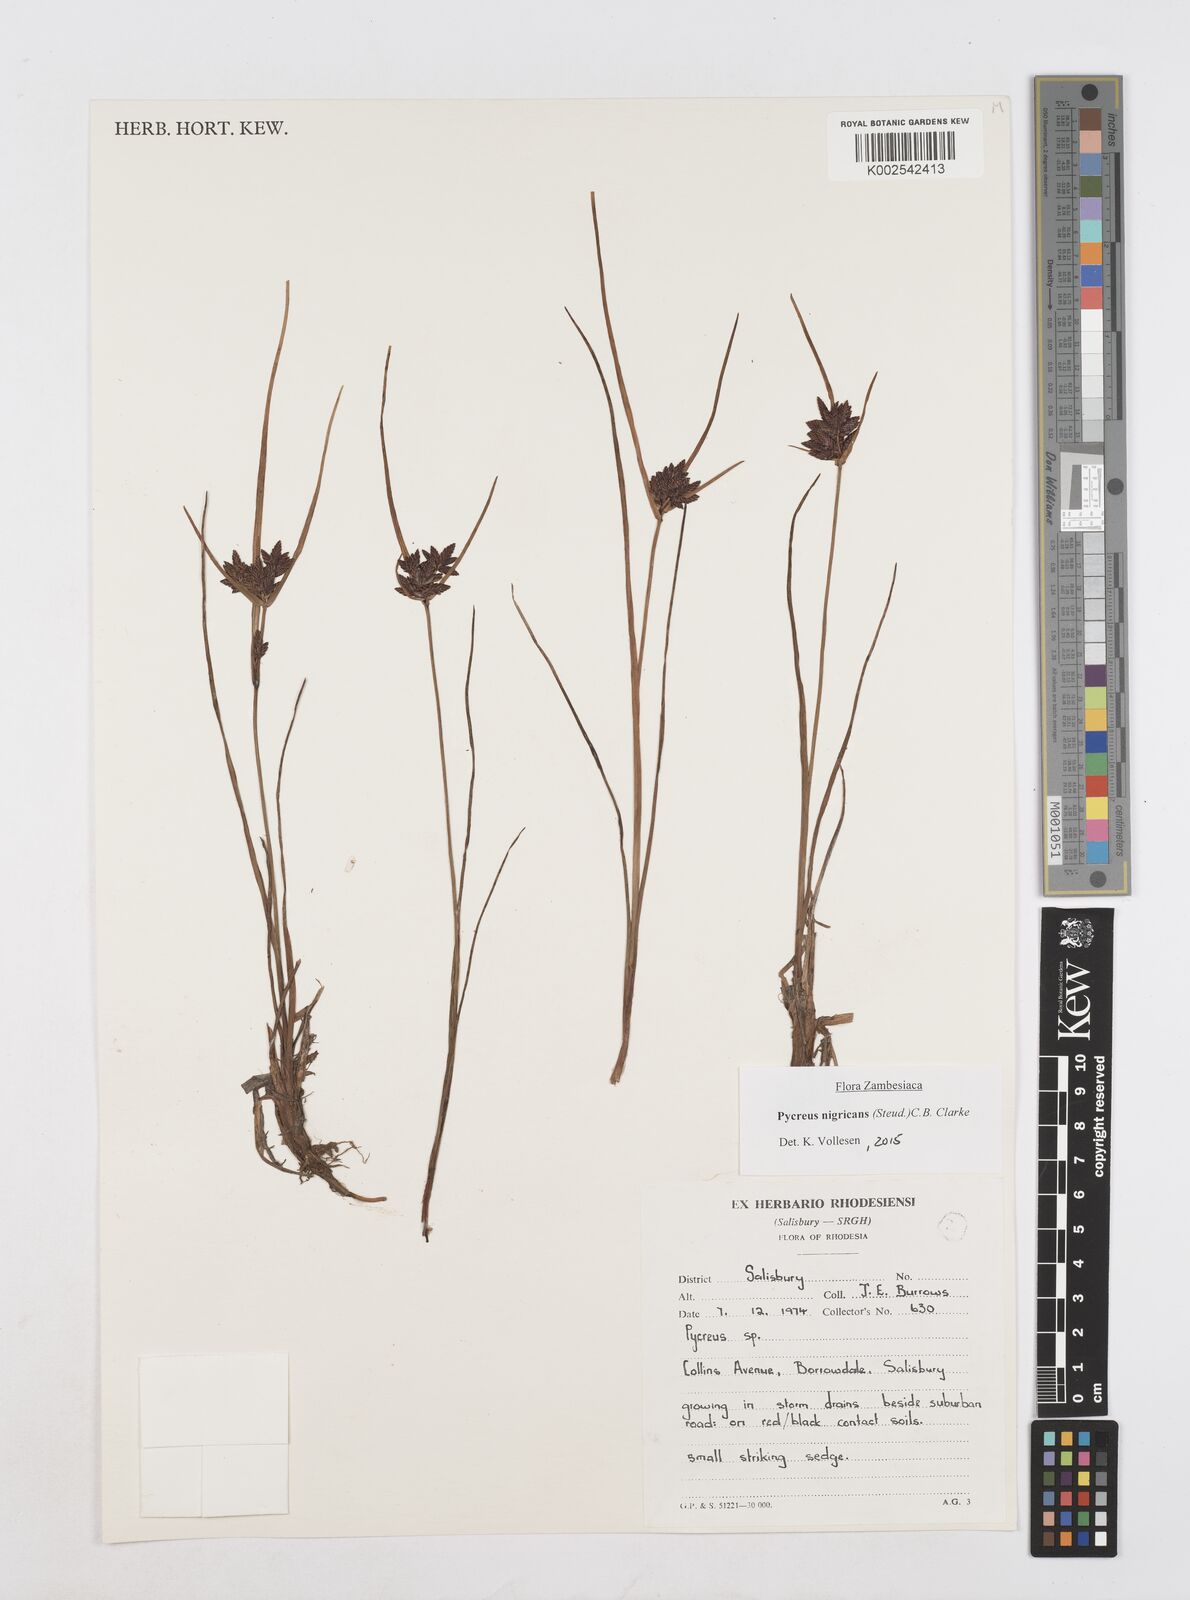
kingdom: Plantae
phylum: Tracheophyta
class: Liliopsida
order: Poales
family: Cyperaceae
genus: Cyperus
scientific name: Cyperus nigricans
